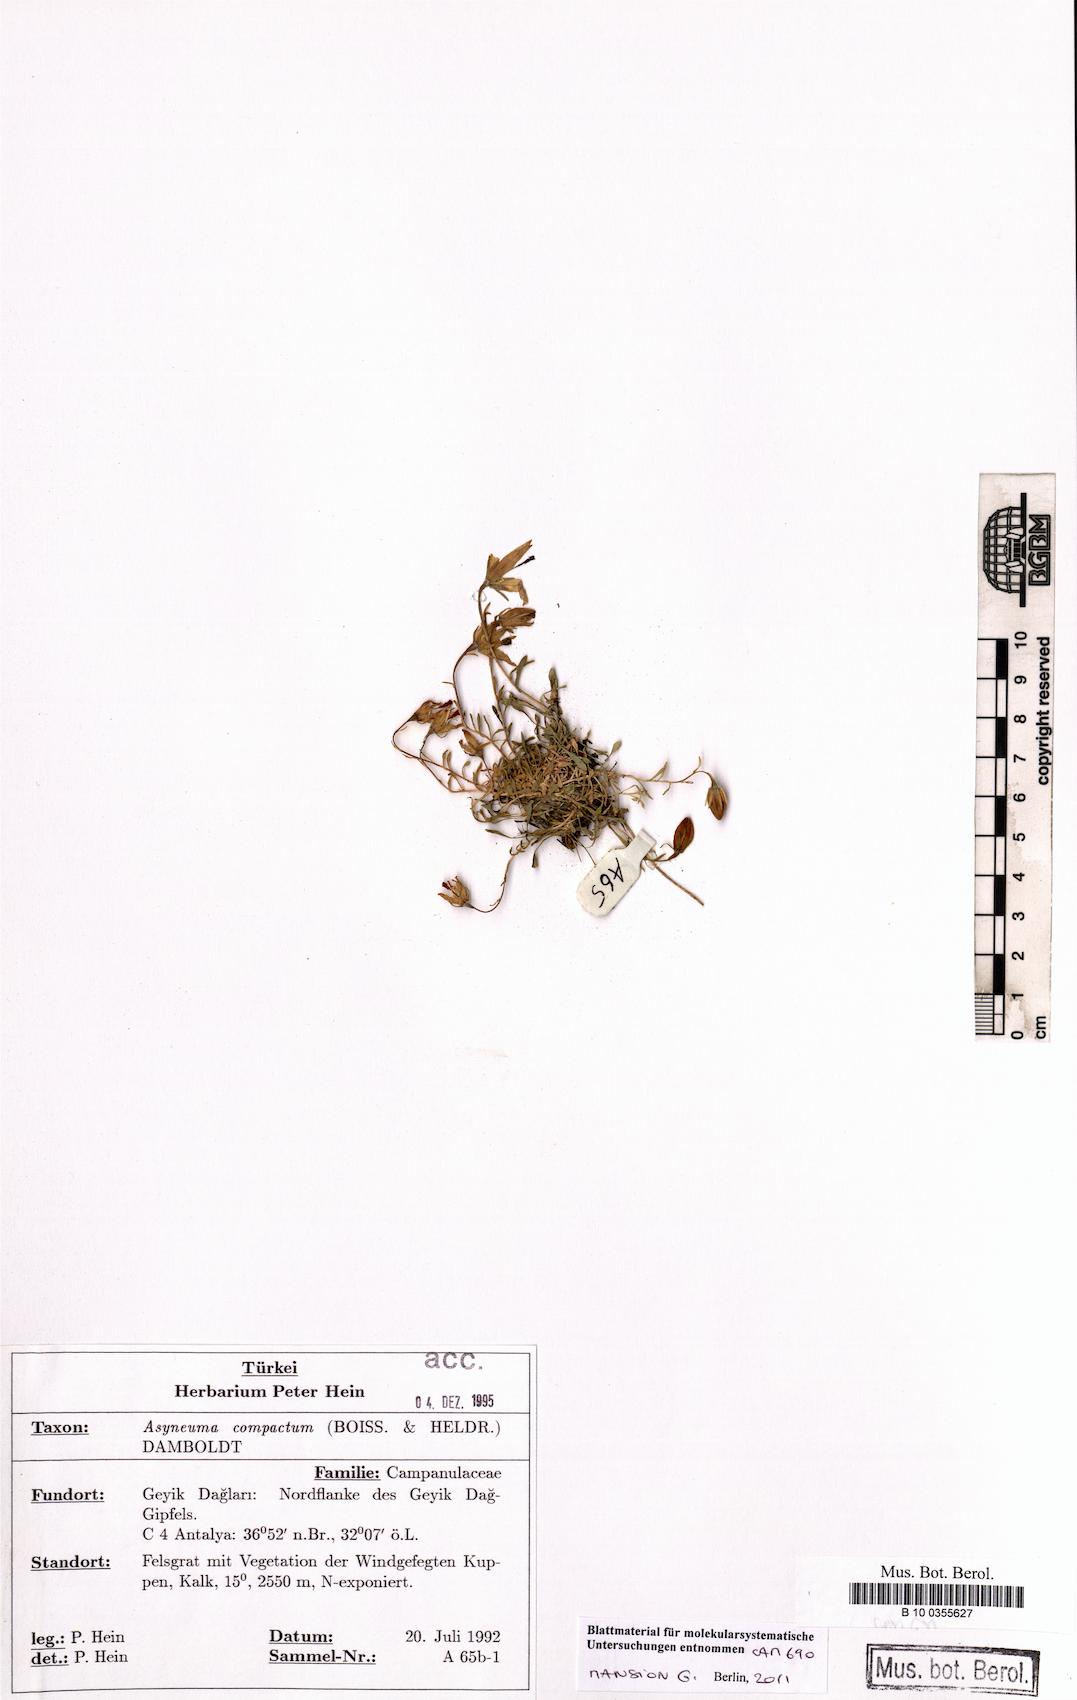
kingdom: Plantae
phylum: Tracheophyta
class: Magnoliopsida
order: Asterales
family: Campanulaceae
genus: Asyneuma
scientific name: Asyneuma compactum
